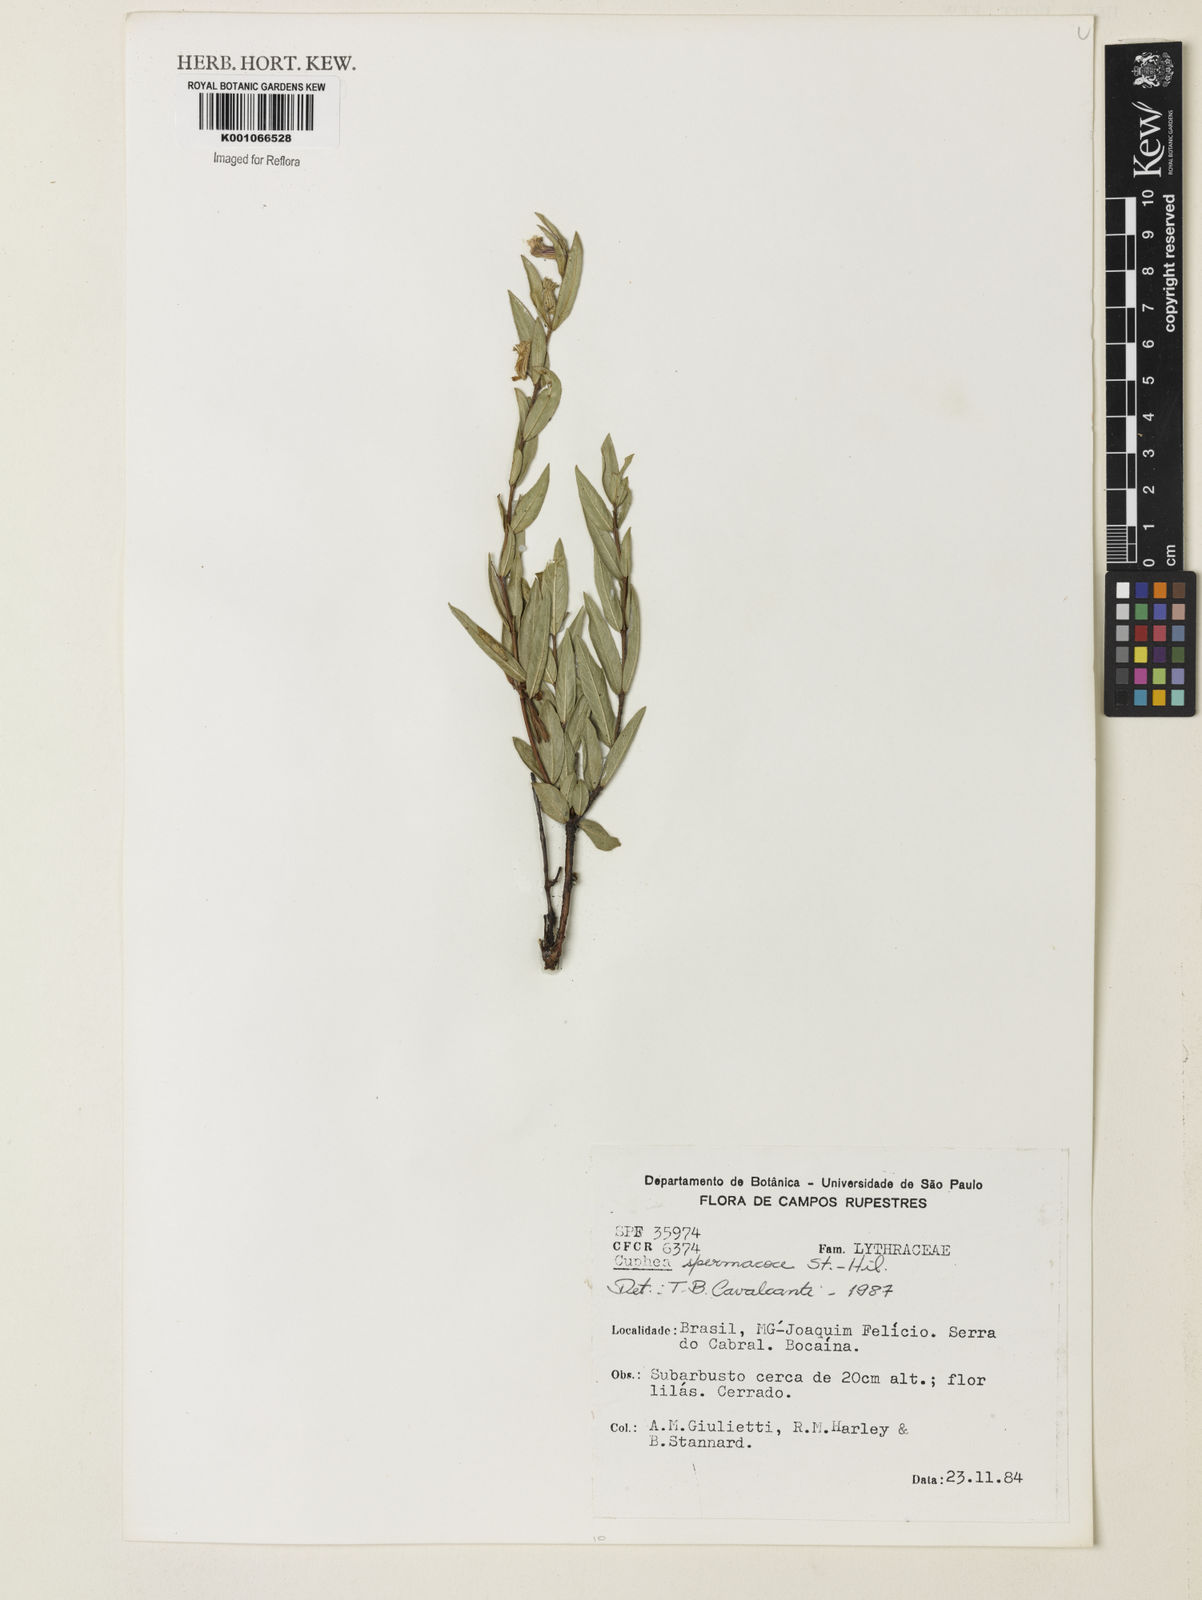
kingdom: Plantae
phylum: Tracheophyta
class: Magnoliopsida
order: Myrtales
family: Lythraceae
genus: Cuphea
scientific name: Cuphea spermacoce
